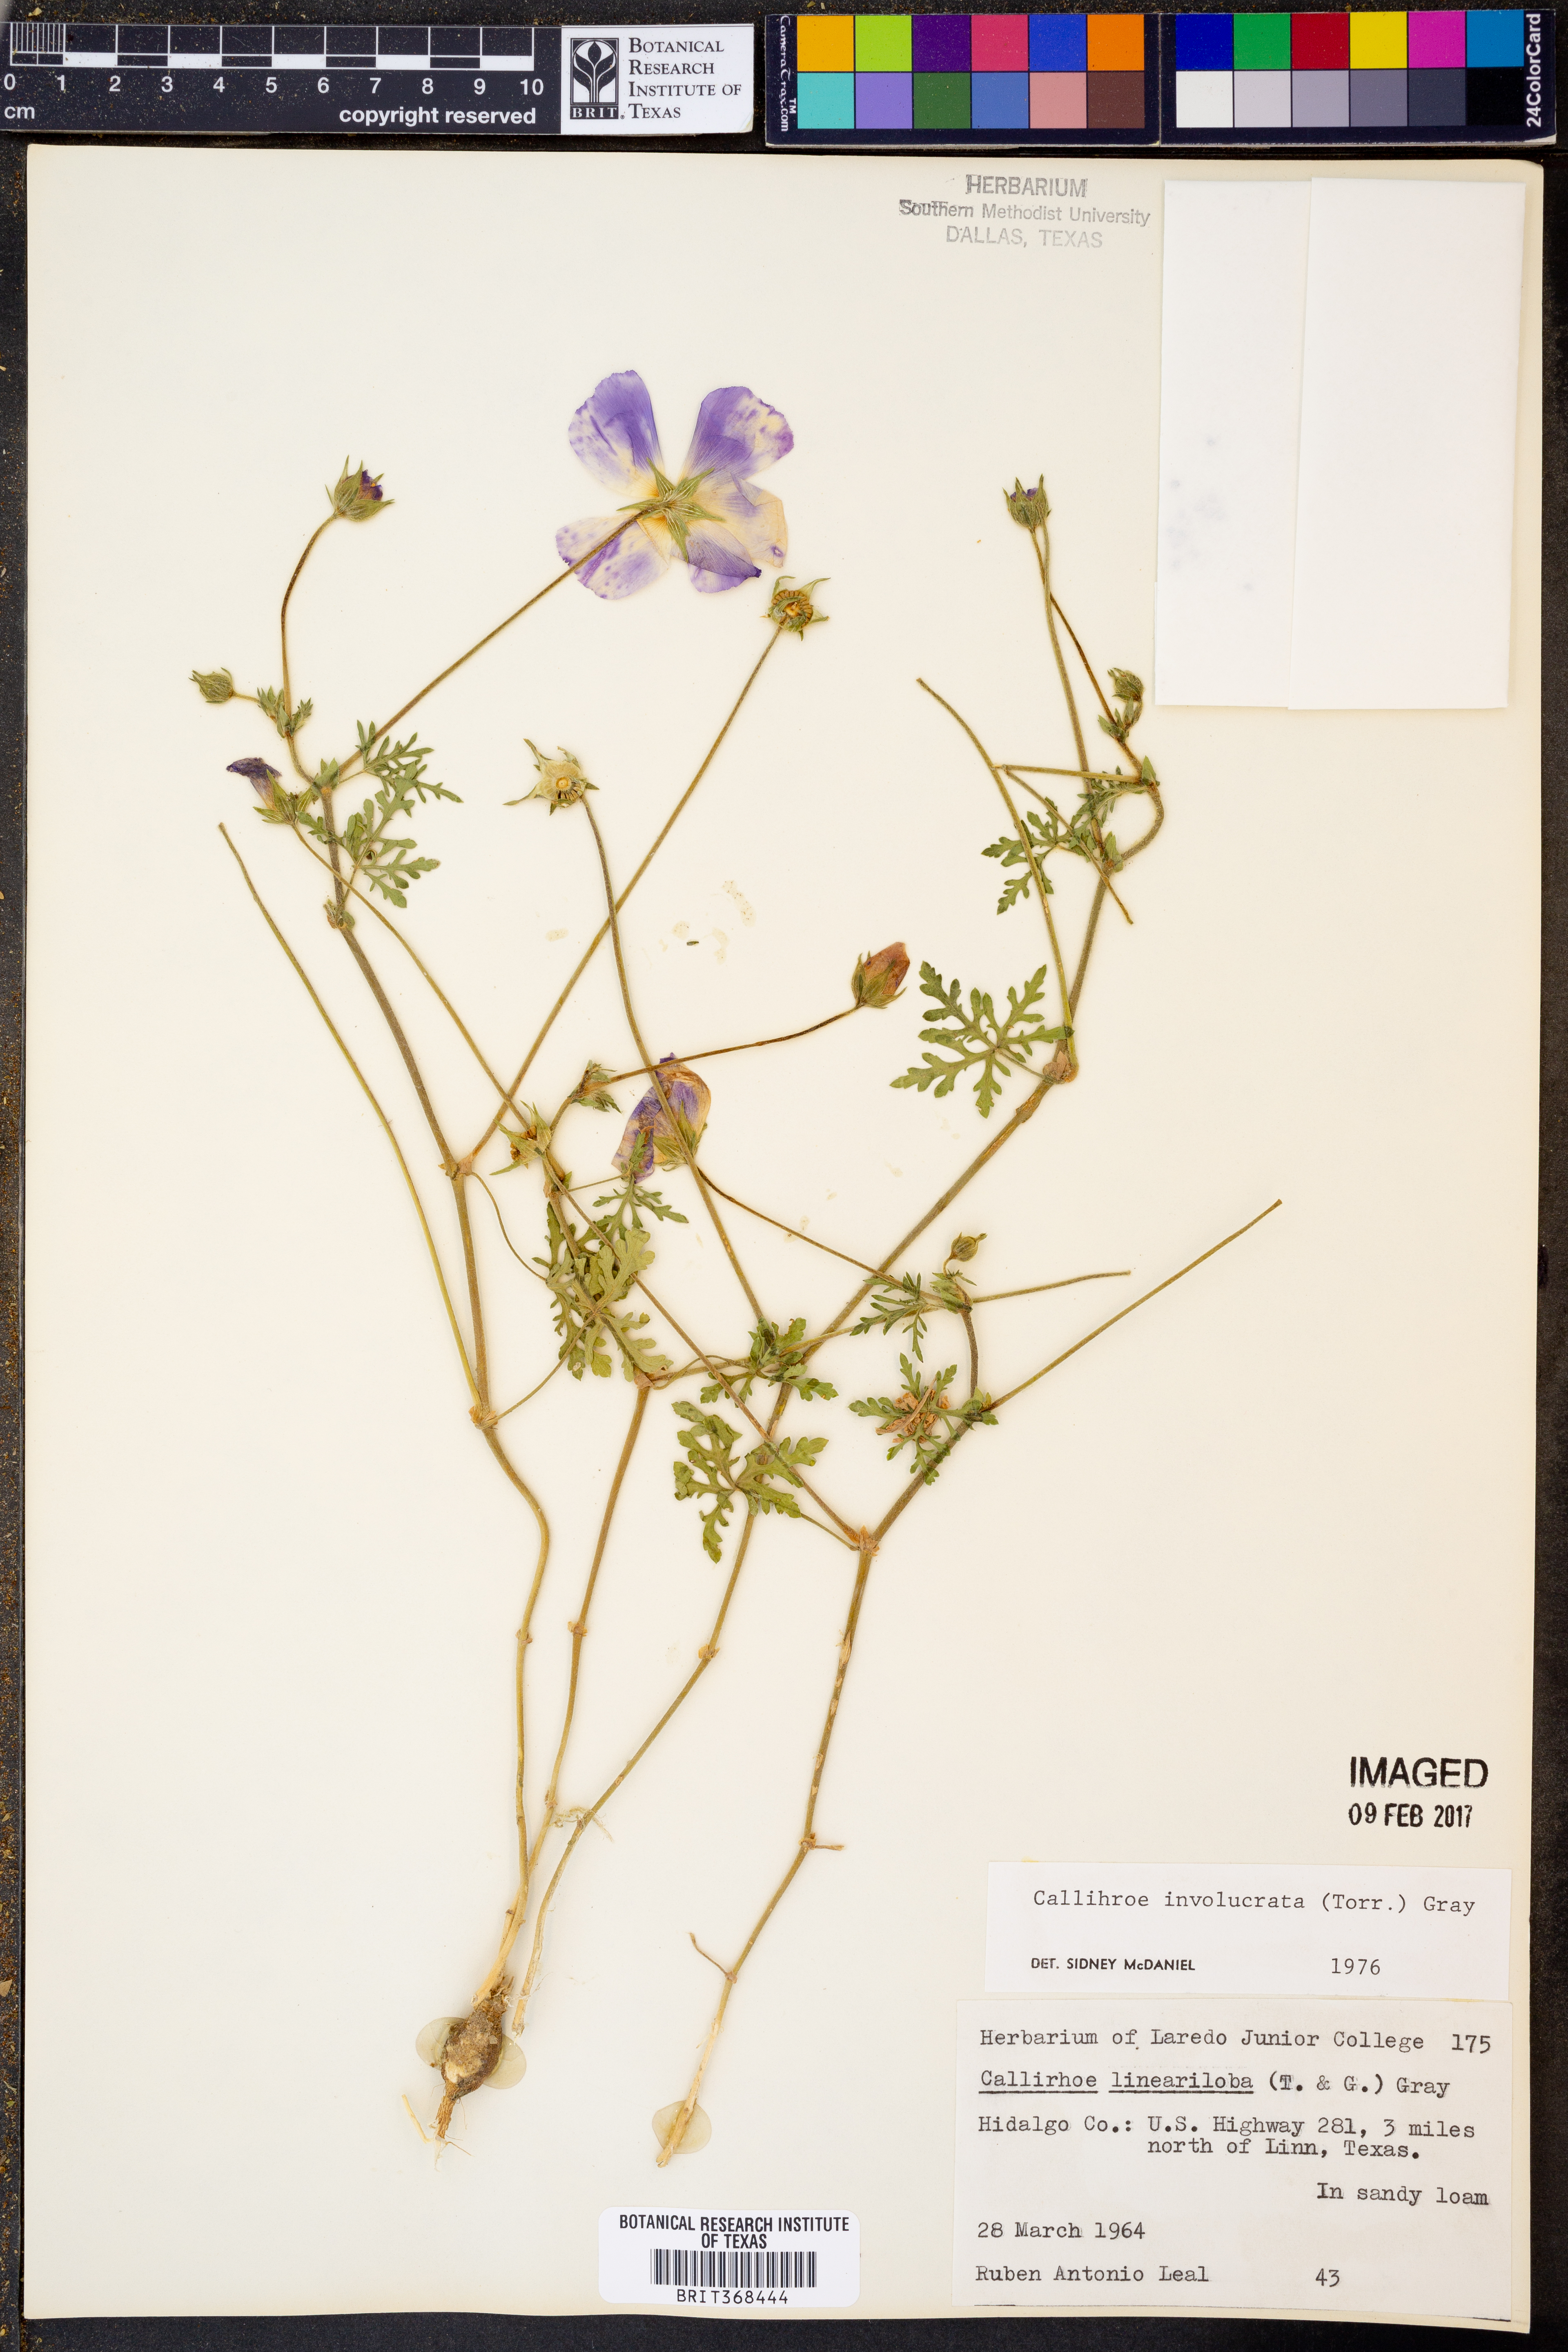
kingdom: Plantae
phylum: Tracheophyta
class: Magnoliopsida
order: Malvales
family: Malvaceae
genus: Callirhoe
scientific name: Callirhoe involucrata
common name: Purple poppy-mallow
